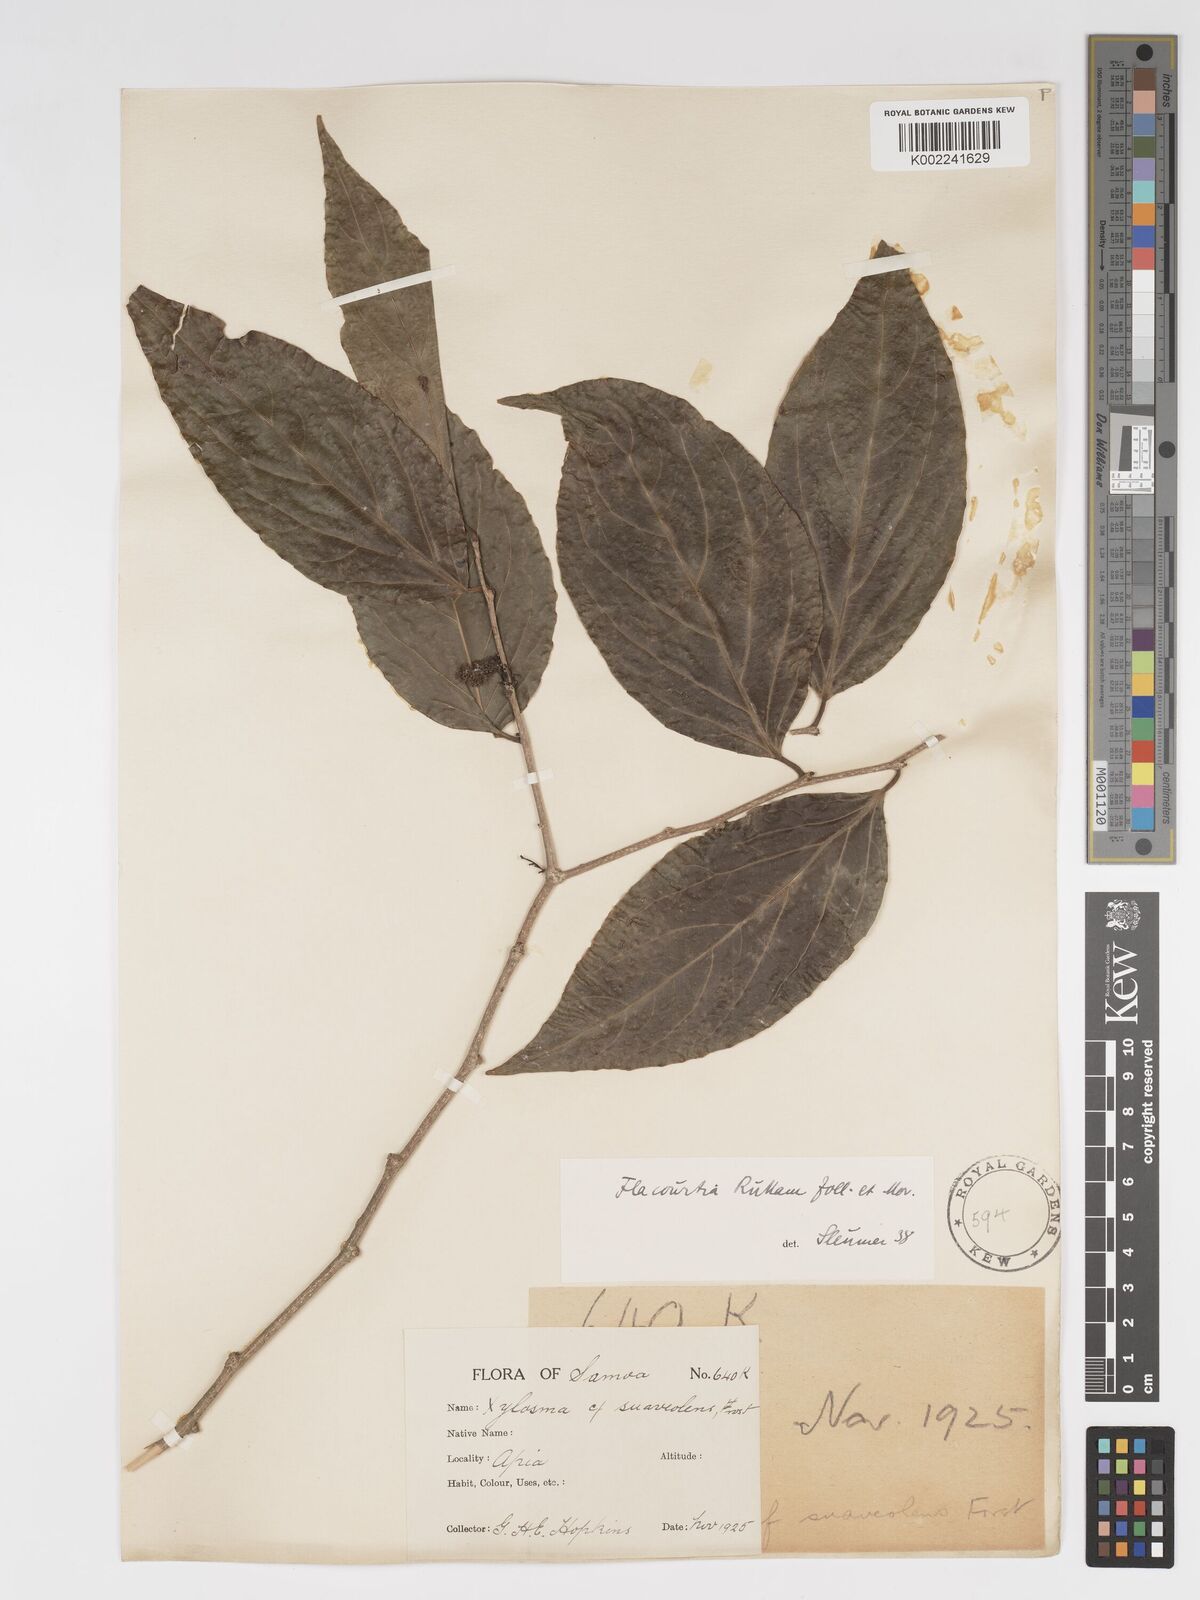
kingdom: Plantae
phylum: Tracheophyta
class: Magnoliopsida
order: Malpighiales
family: Salicaceae
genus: Flacourtia
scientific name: Flacourtia rukam
